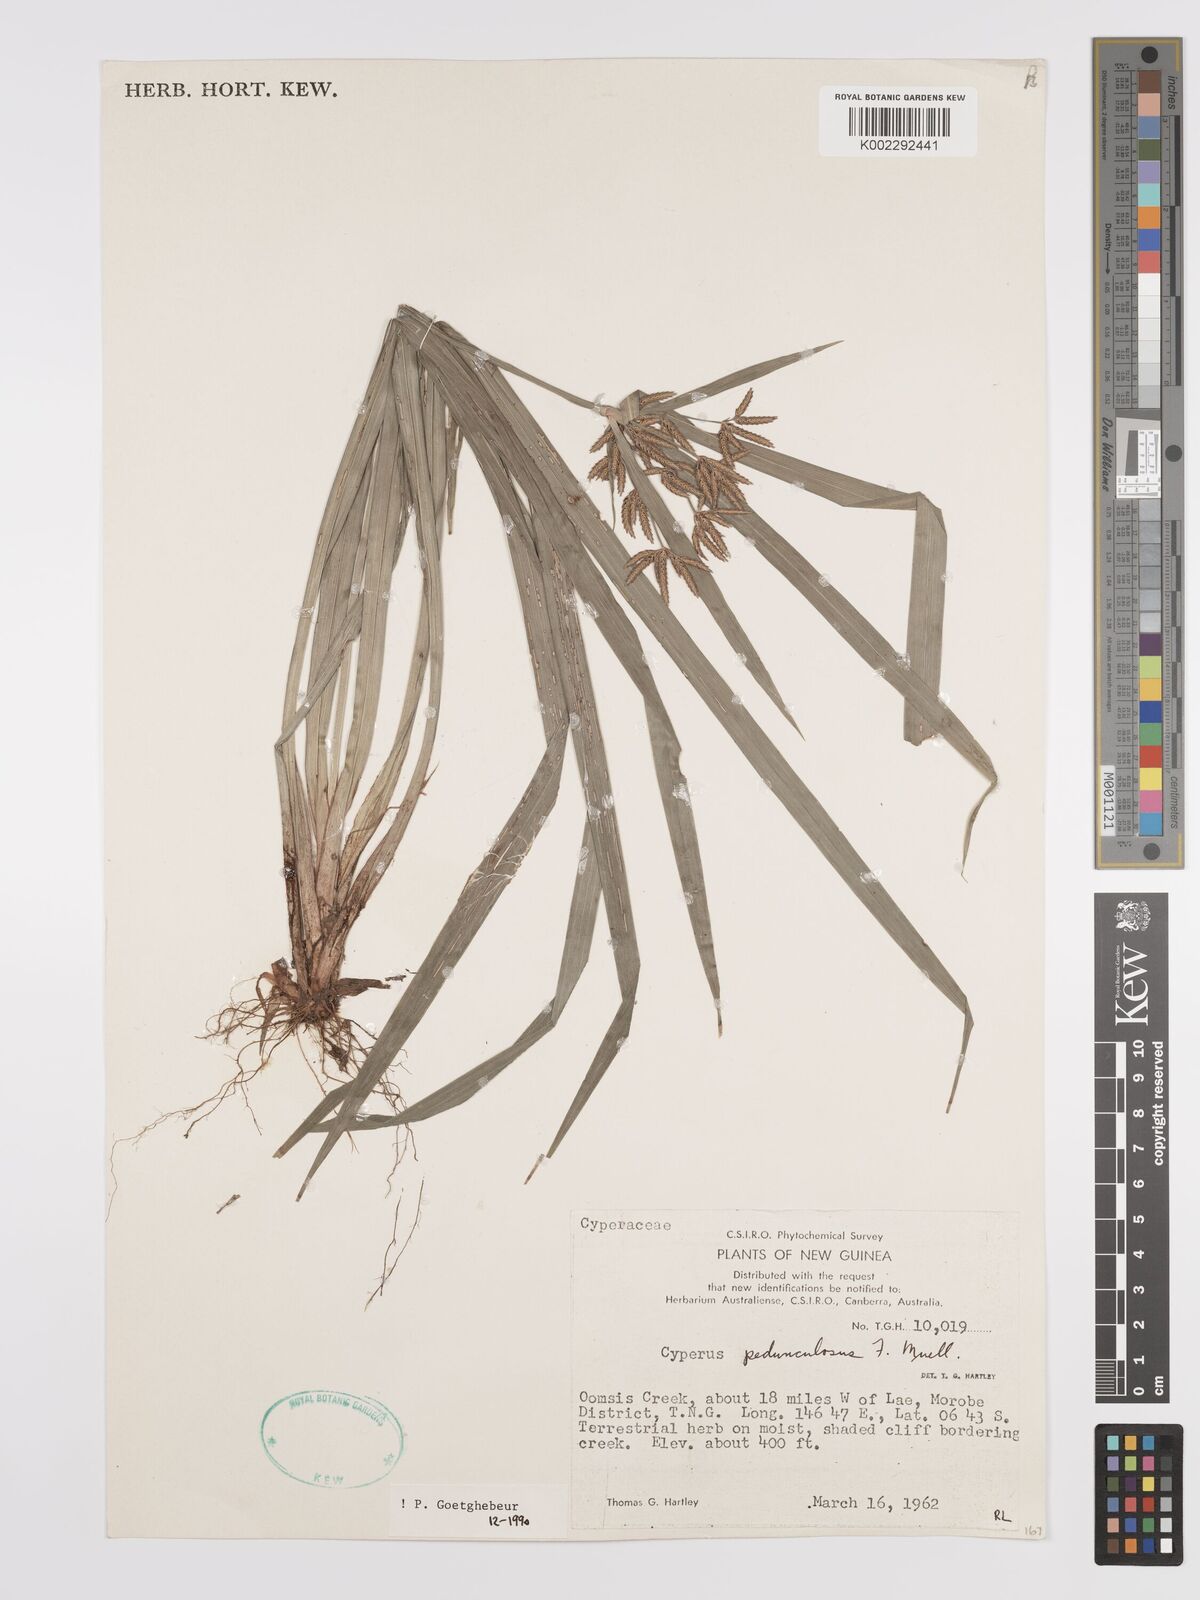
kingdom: Plantae
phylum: Tracheophyta
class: Liliopsida
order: Poales
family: Cyperaceae
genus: Cyperus
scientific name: Cyperus pedunculosus
